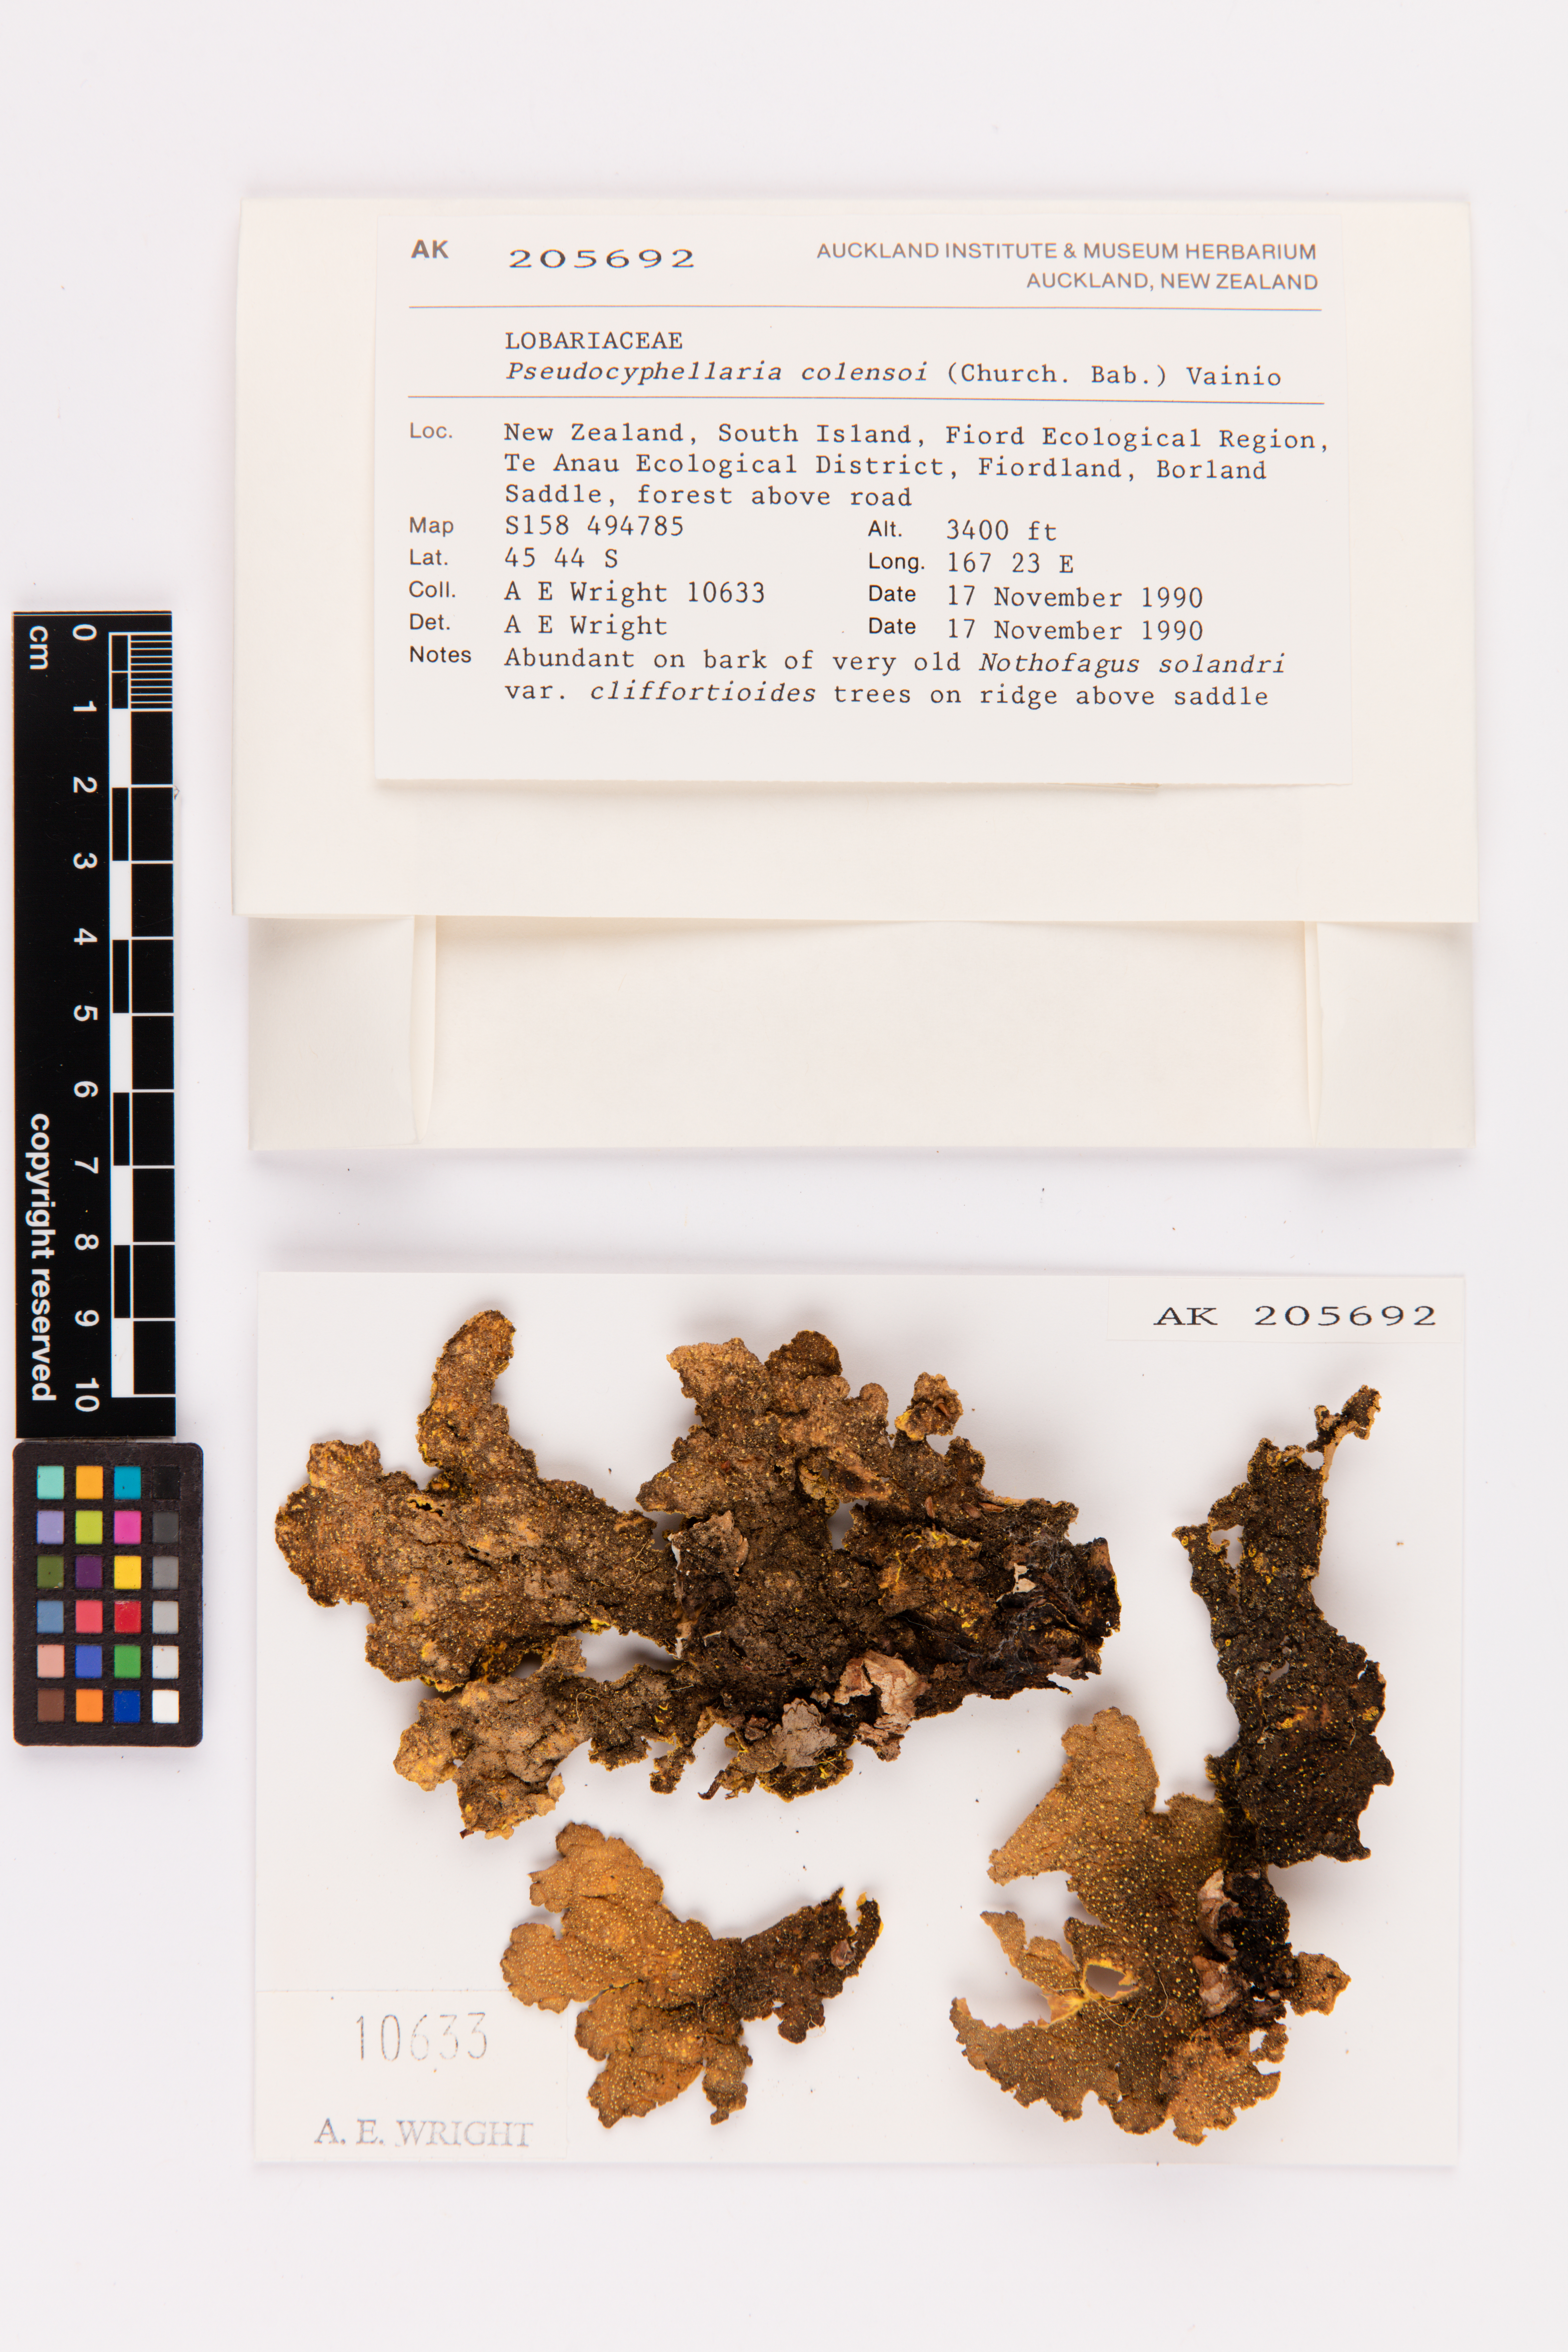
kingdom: Fungi
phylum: Ascomycota
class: Lecanoromycetes
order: Peltigerales
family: Lobariaceae
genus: Yarrumia
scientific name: Yarrumia colensoi
